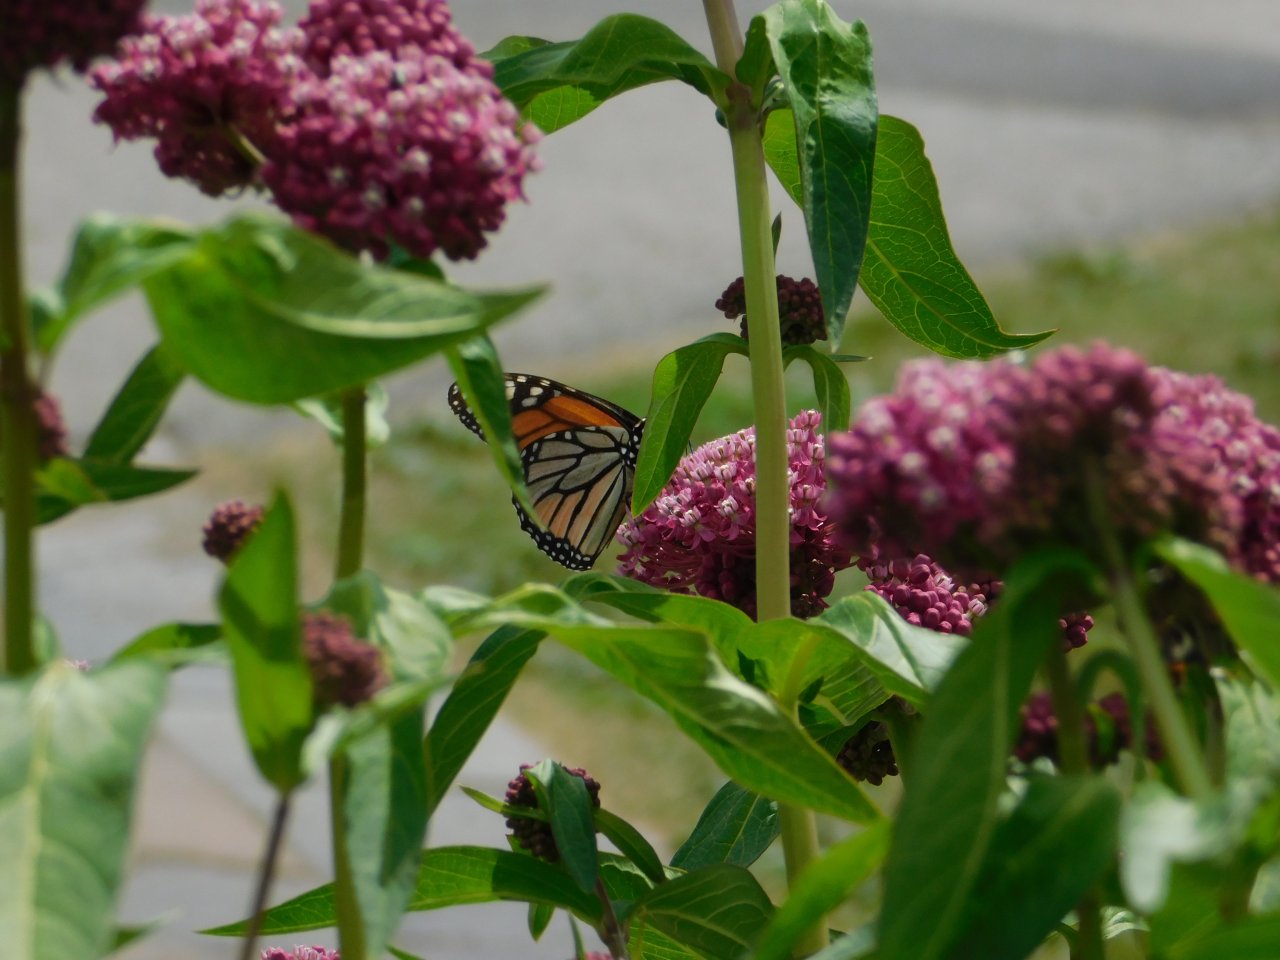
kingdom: Animalia
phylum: Arthropoda
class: Insecta
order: Lepidoptera
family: Nymphalidae
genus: Danaus
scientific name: Danaus plexippus
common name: Monarch
